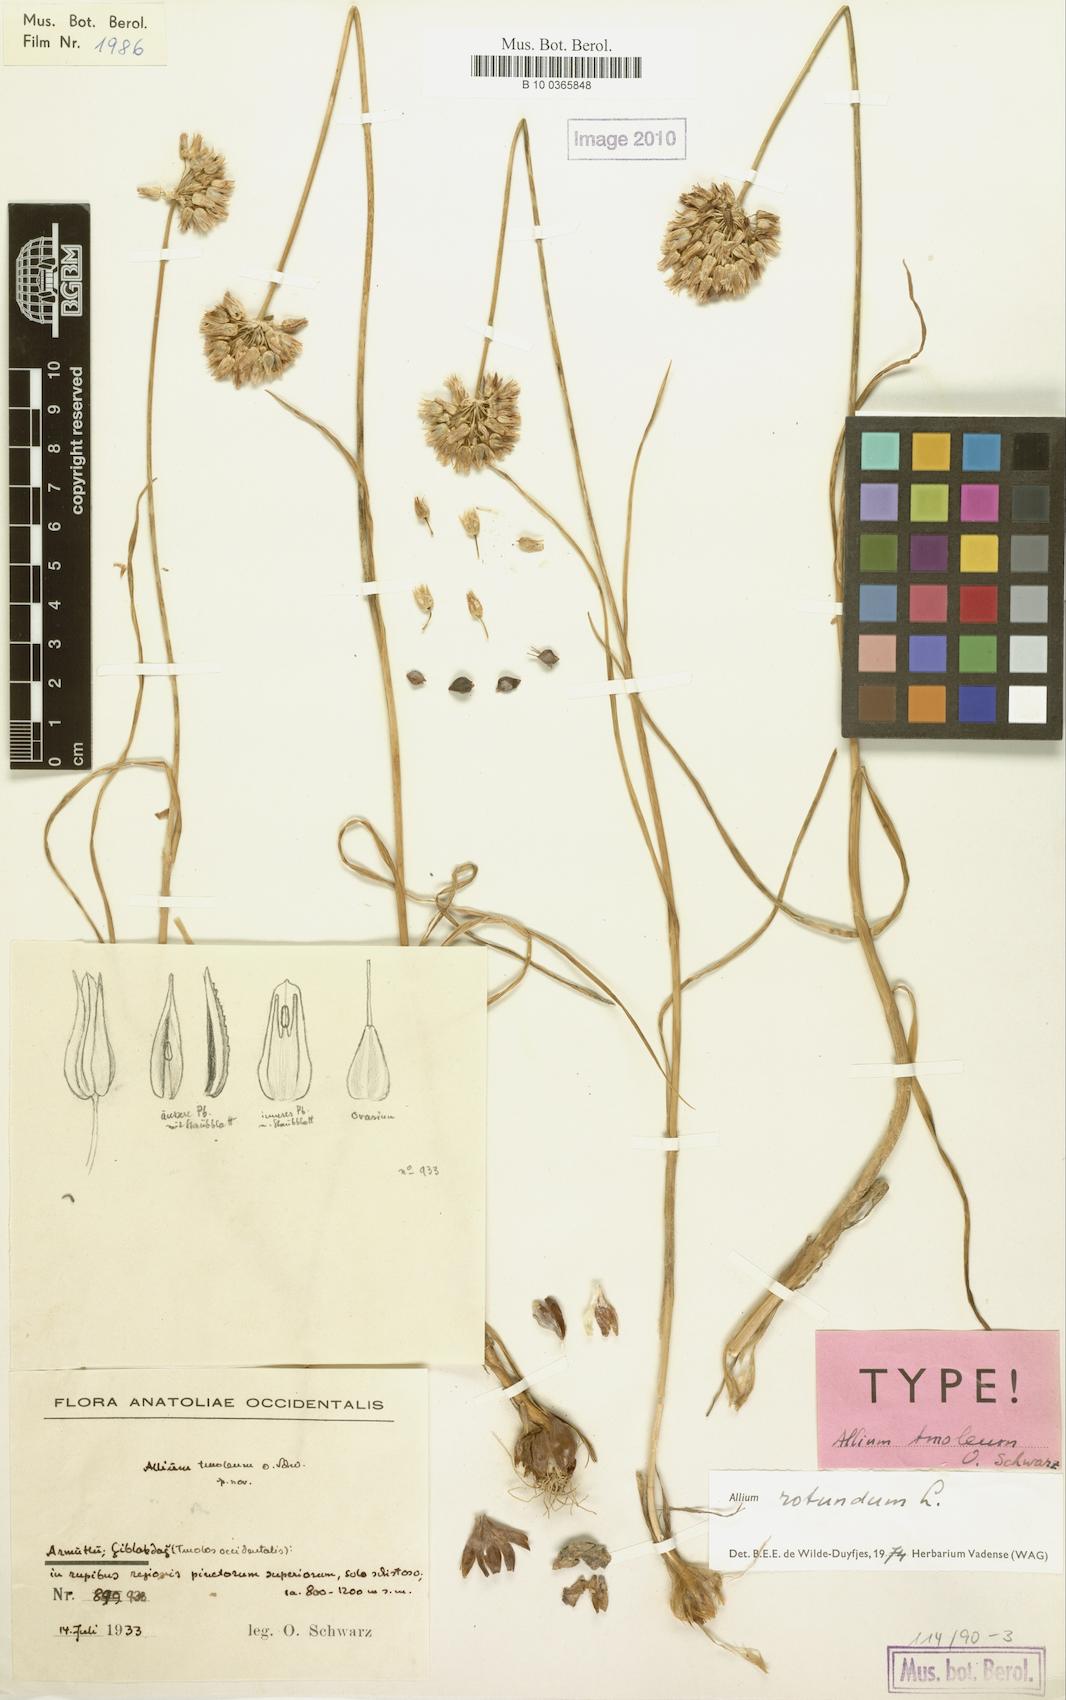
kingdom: Plantae
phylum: Tracheophyta
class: Liliopsida
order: Asparagales
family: Amaryllidaceae
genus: Allium
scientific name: Allium rotundum
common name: Sand leek
